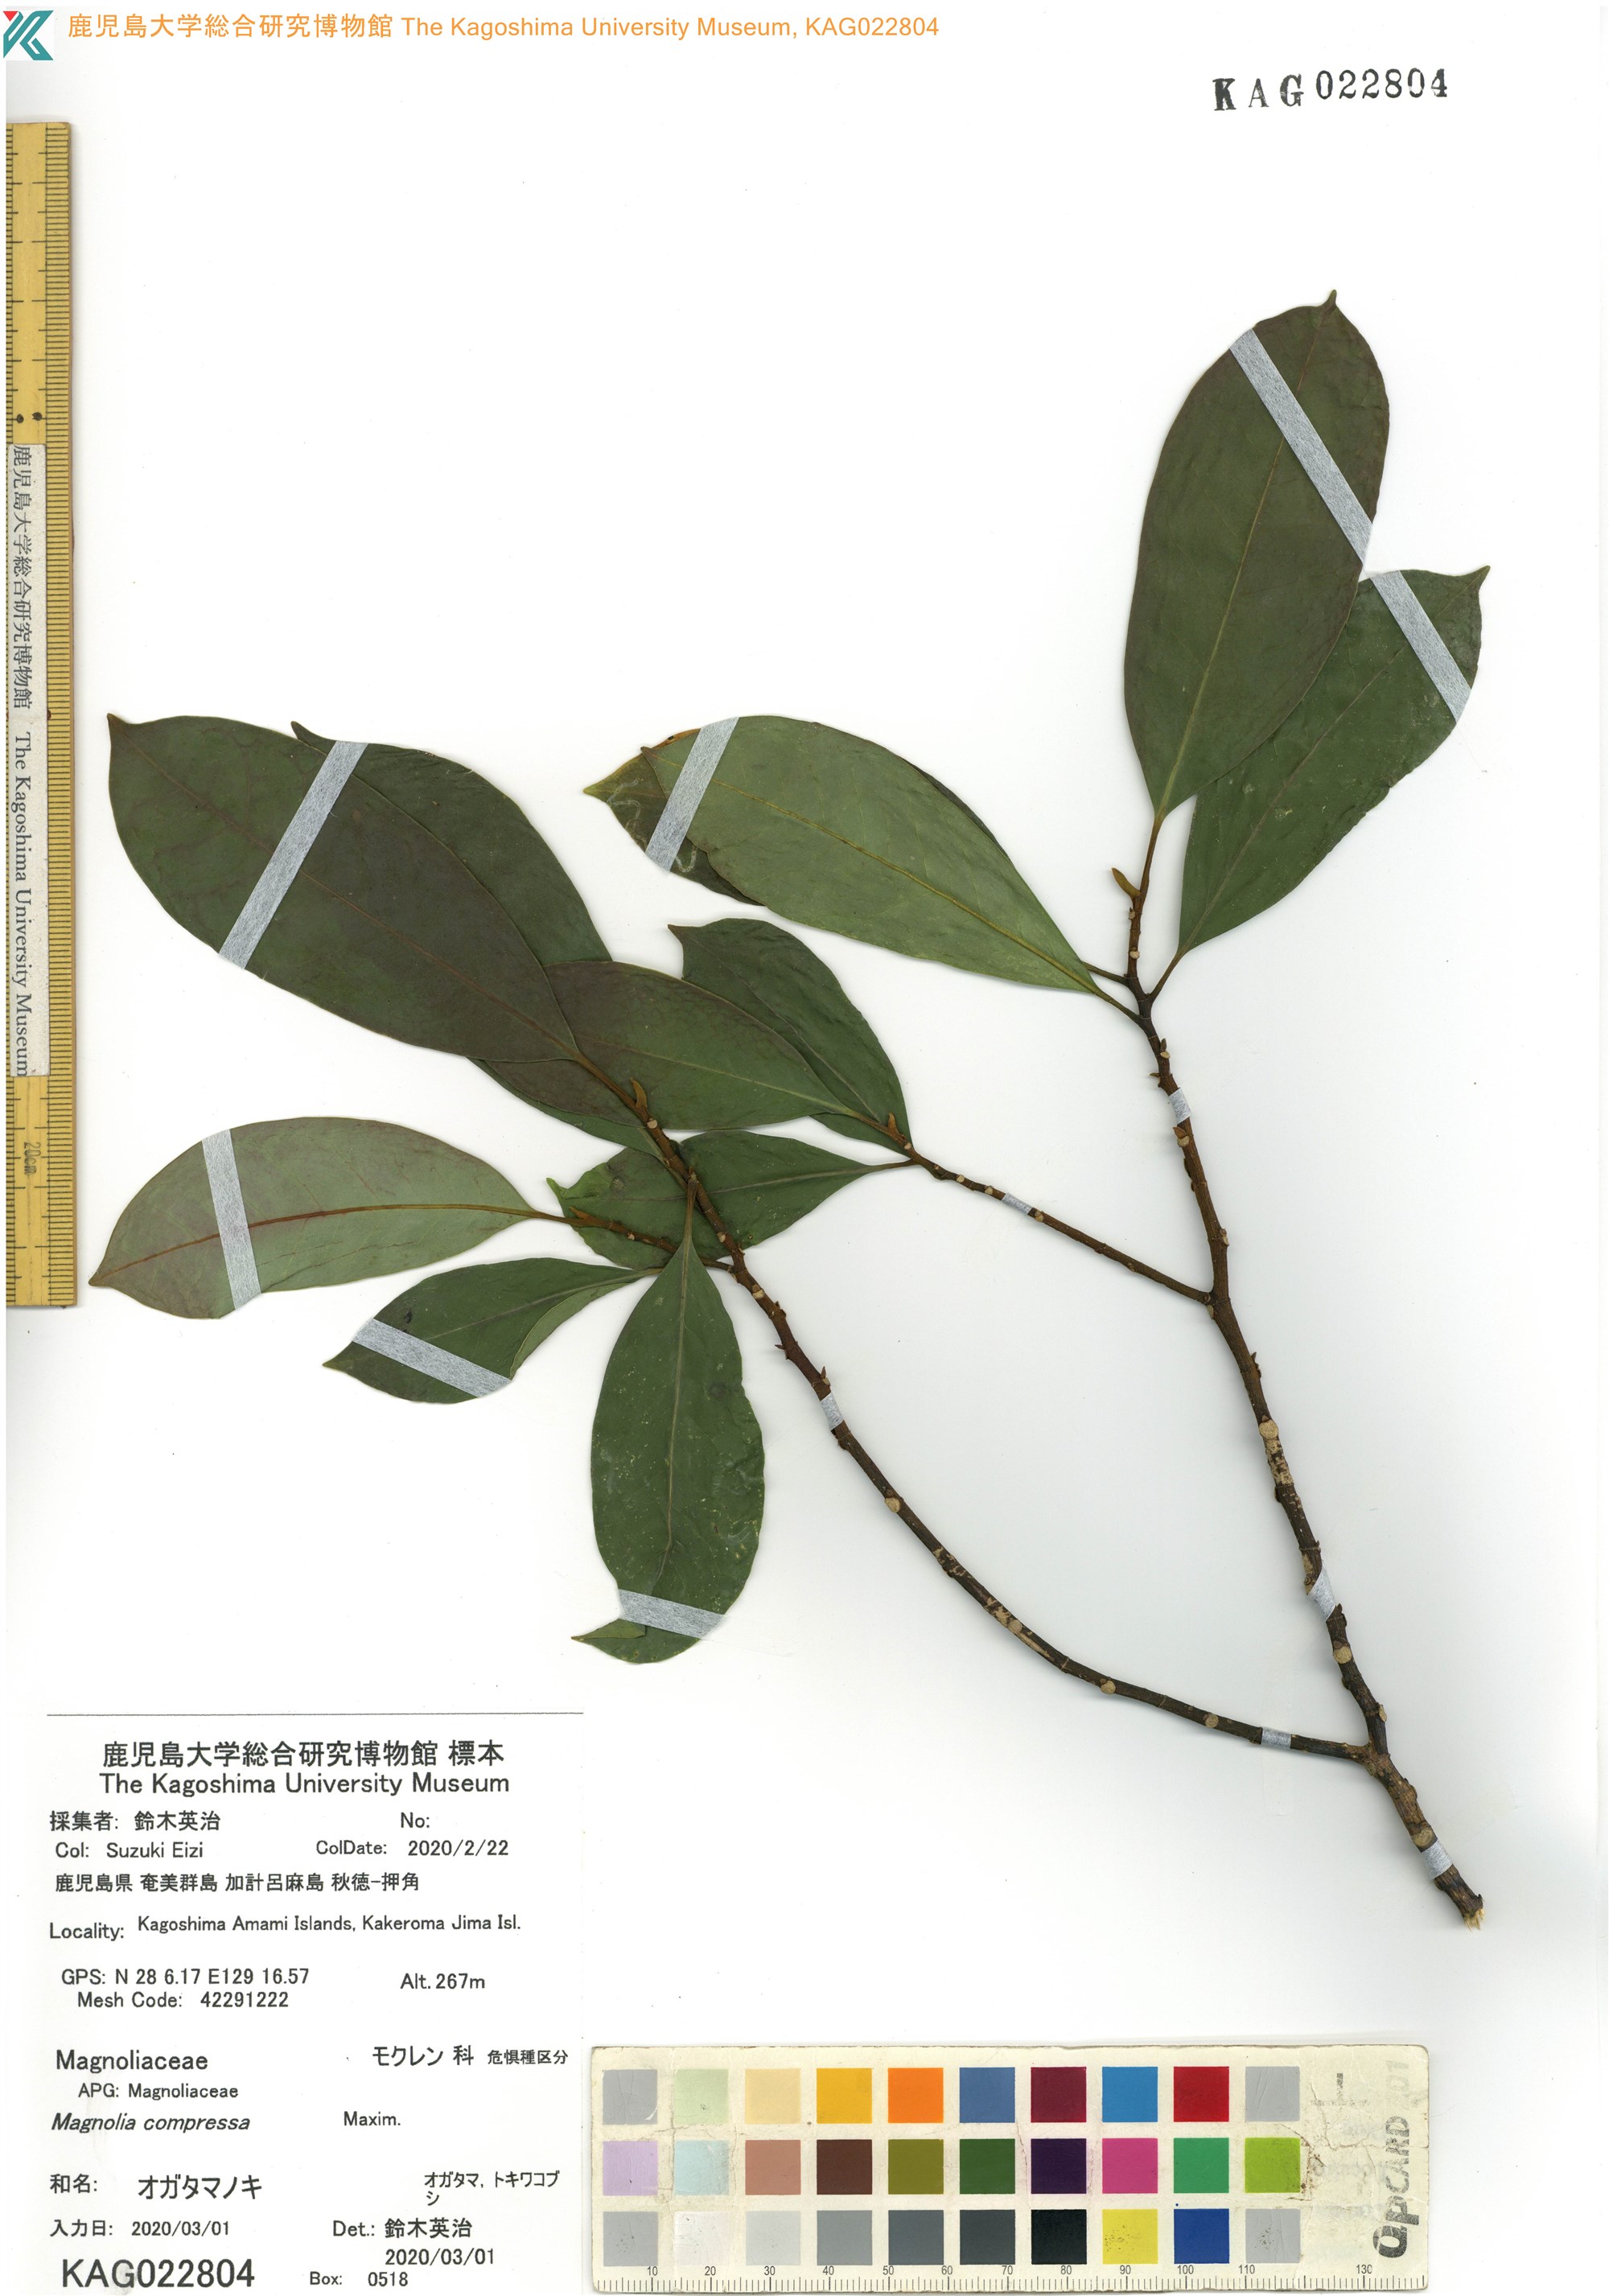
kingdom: Plantae
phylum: Tracheophyta
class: Magnoliopsida
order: Magnoliales
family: Magnoliaceae
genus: Magnolia
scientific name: Magnolia compressa
